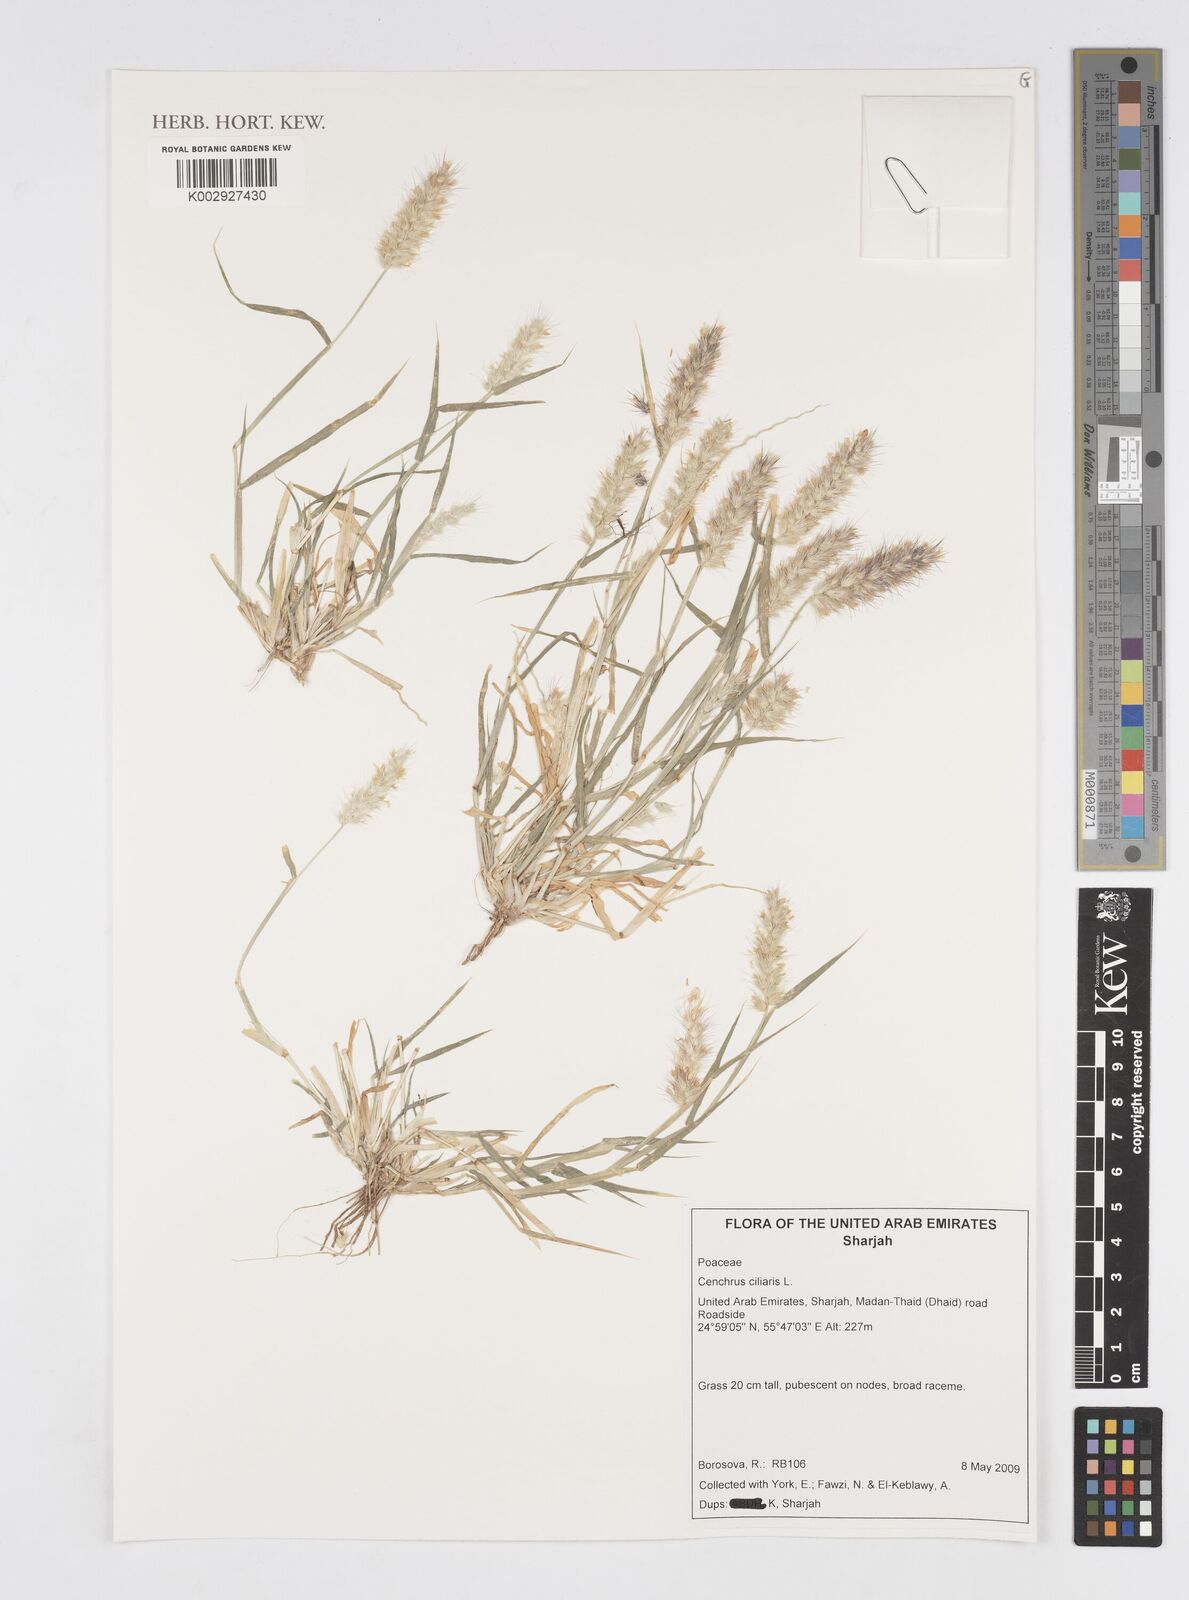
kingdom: Plantae
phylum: Tracheophyta
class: Liliopsida
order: Poales
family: Poaceae
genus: Cenchrus
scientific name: Cenchrus ciliaris
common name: Buffelgrass
